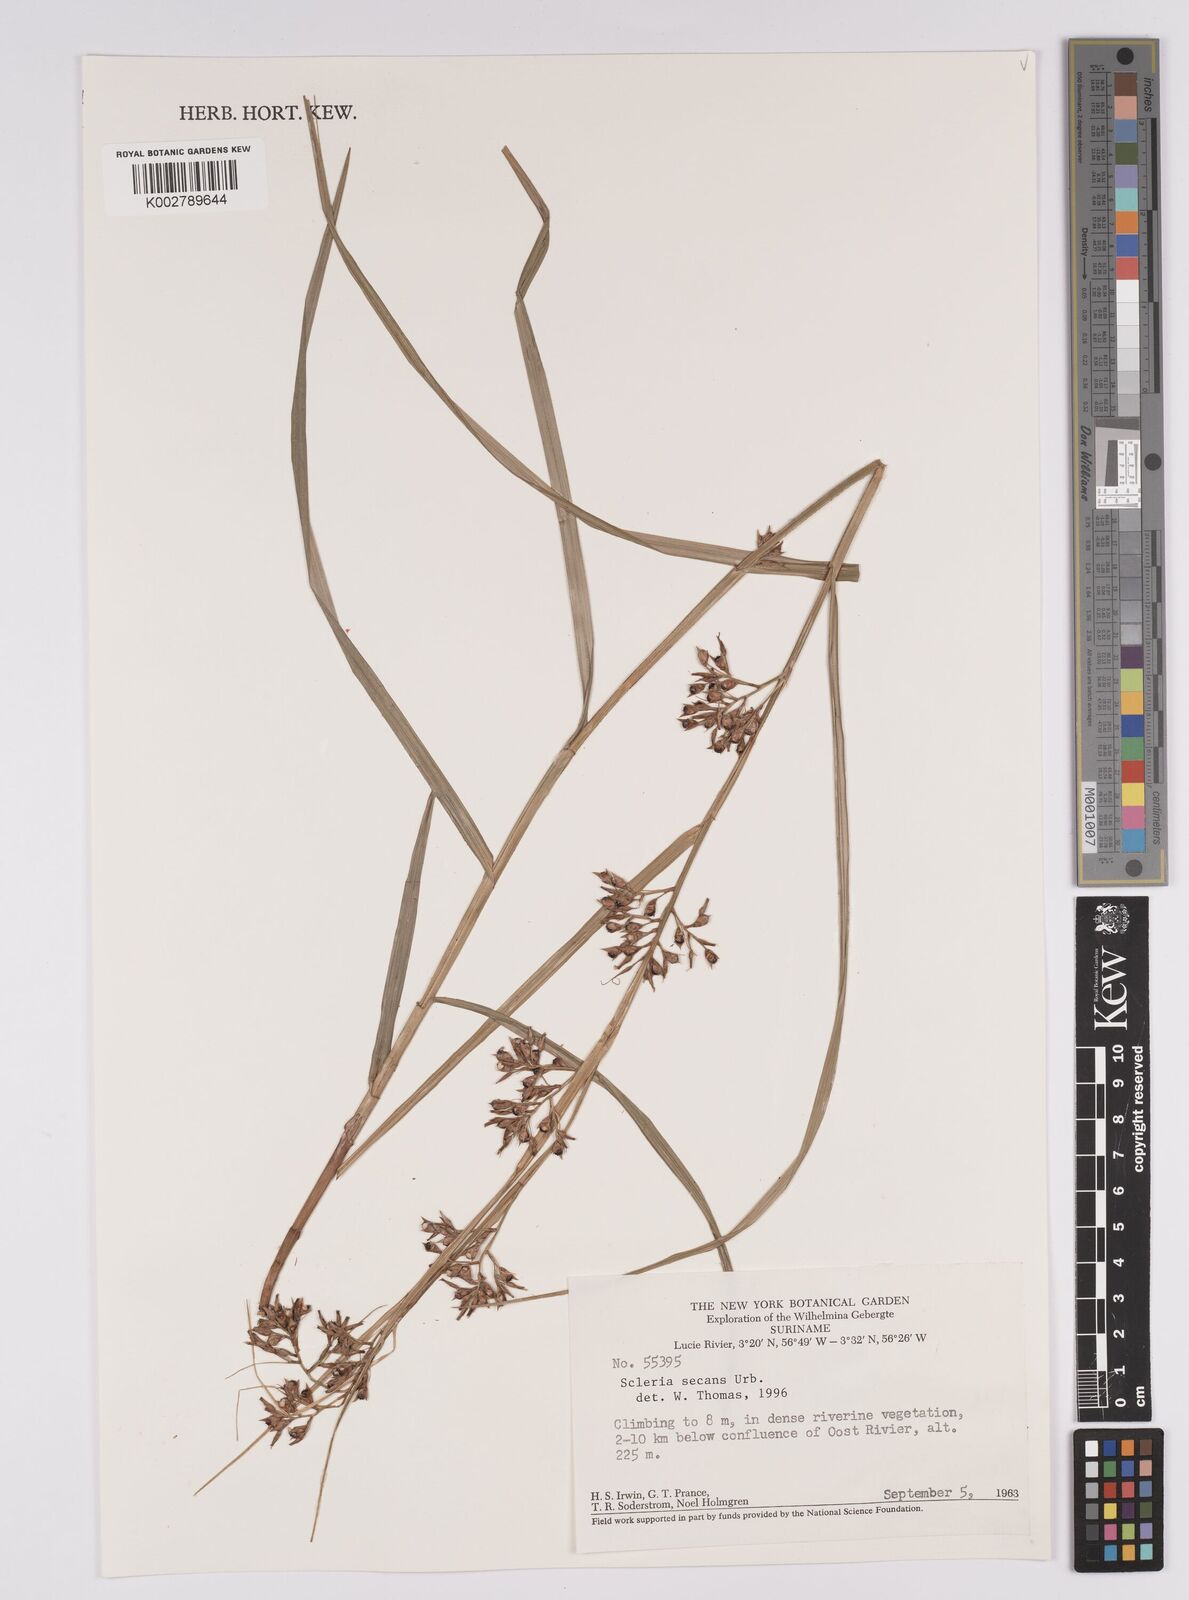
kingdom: Plantae
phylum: Tracheophyta
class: Liliopsida
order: Poales
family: Cyperaceae
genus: Scleria
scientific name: Scleria secans
